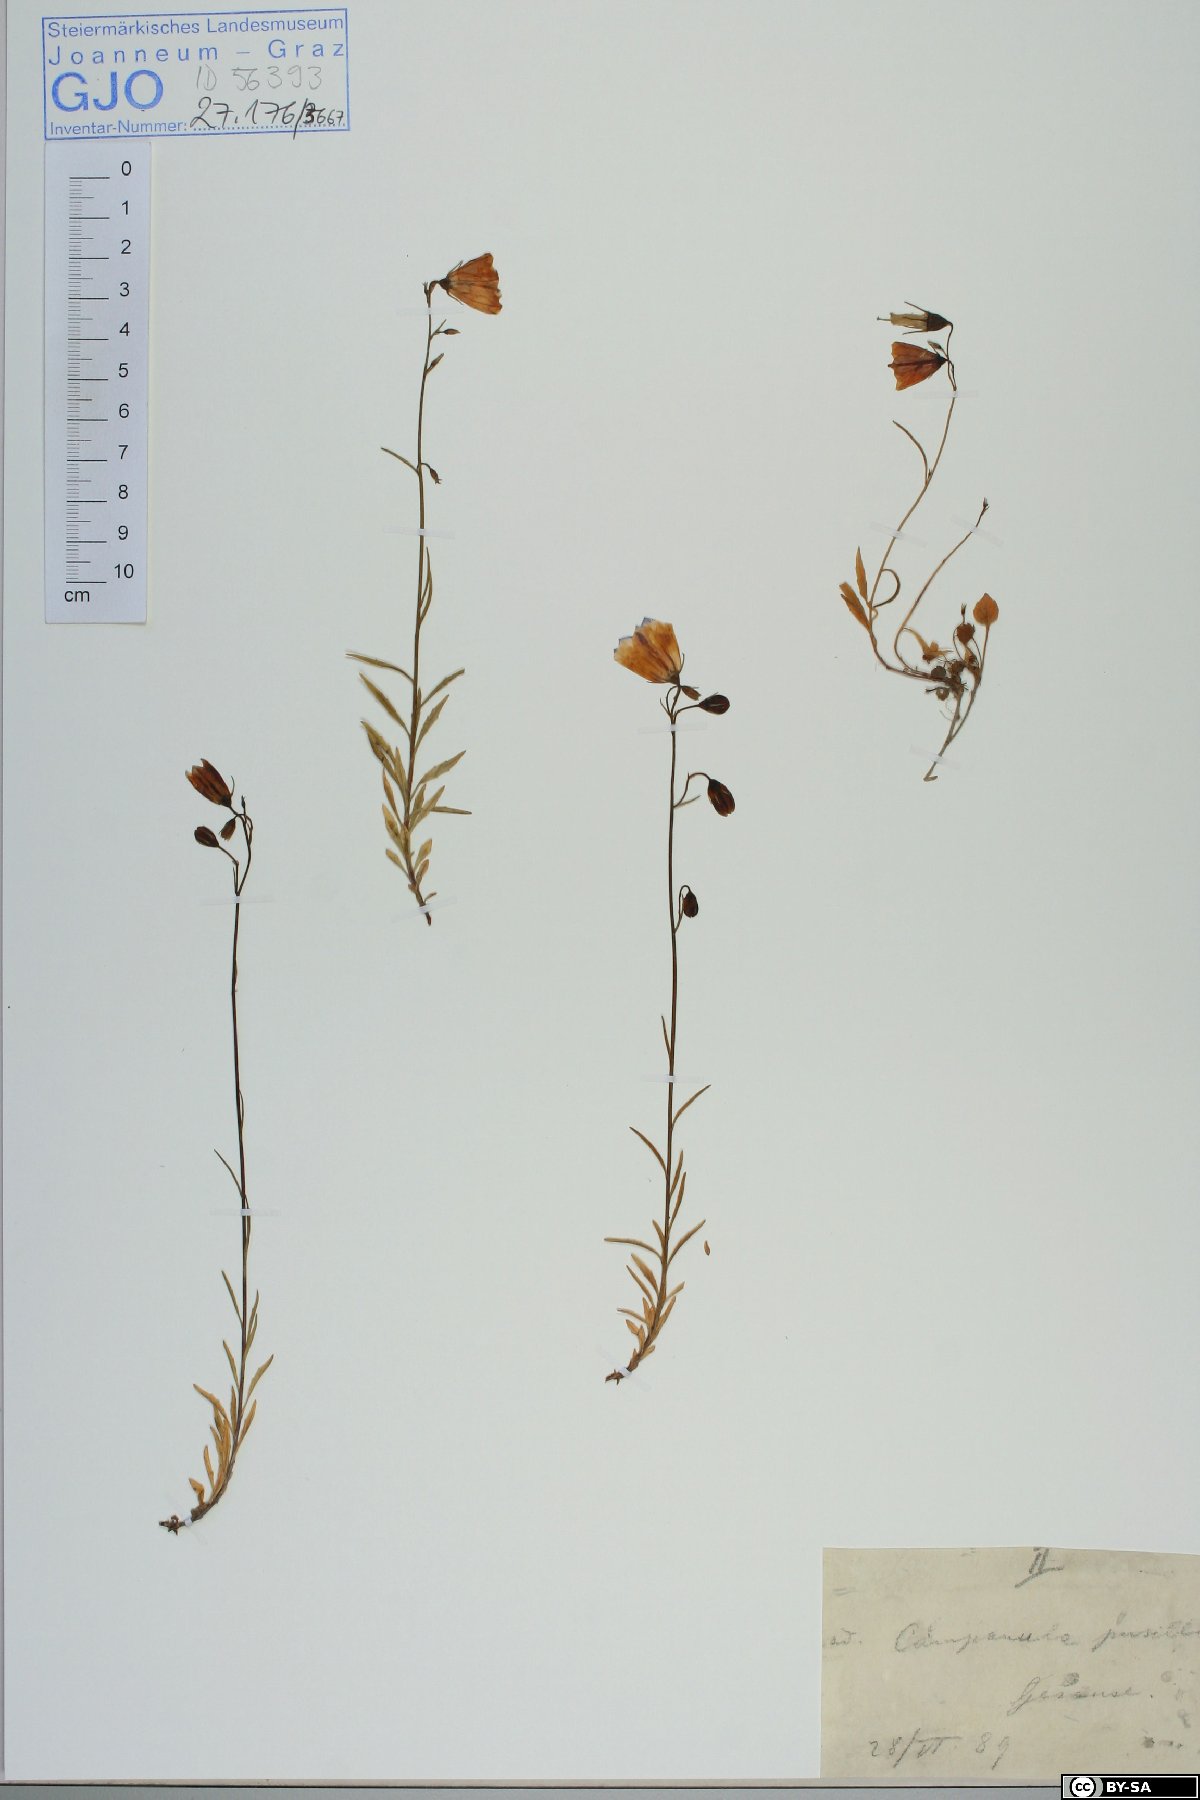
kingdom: Plantae
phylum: Tracheophyta
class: Magnoliopsida
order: Asterales
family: Campanulaceae
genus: Campanula
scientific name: Campanula cochleariifolia
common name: Fairies'-thimbles
